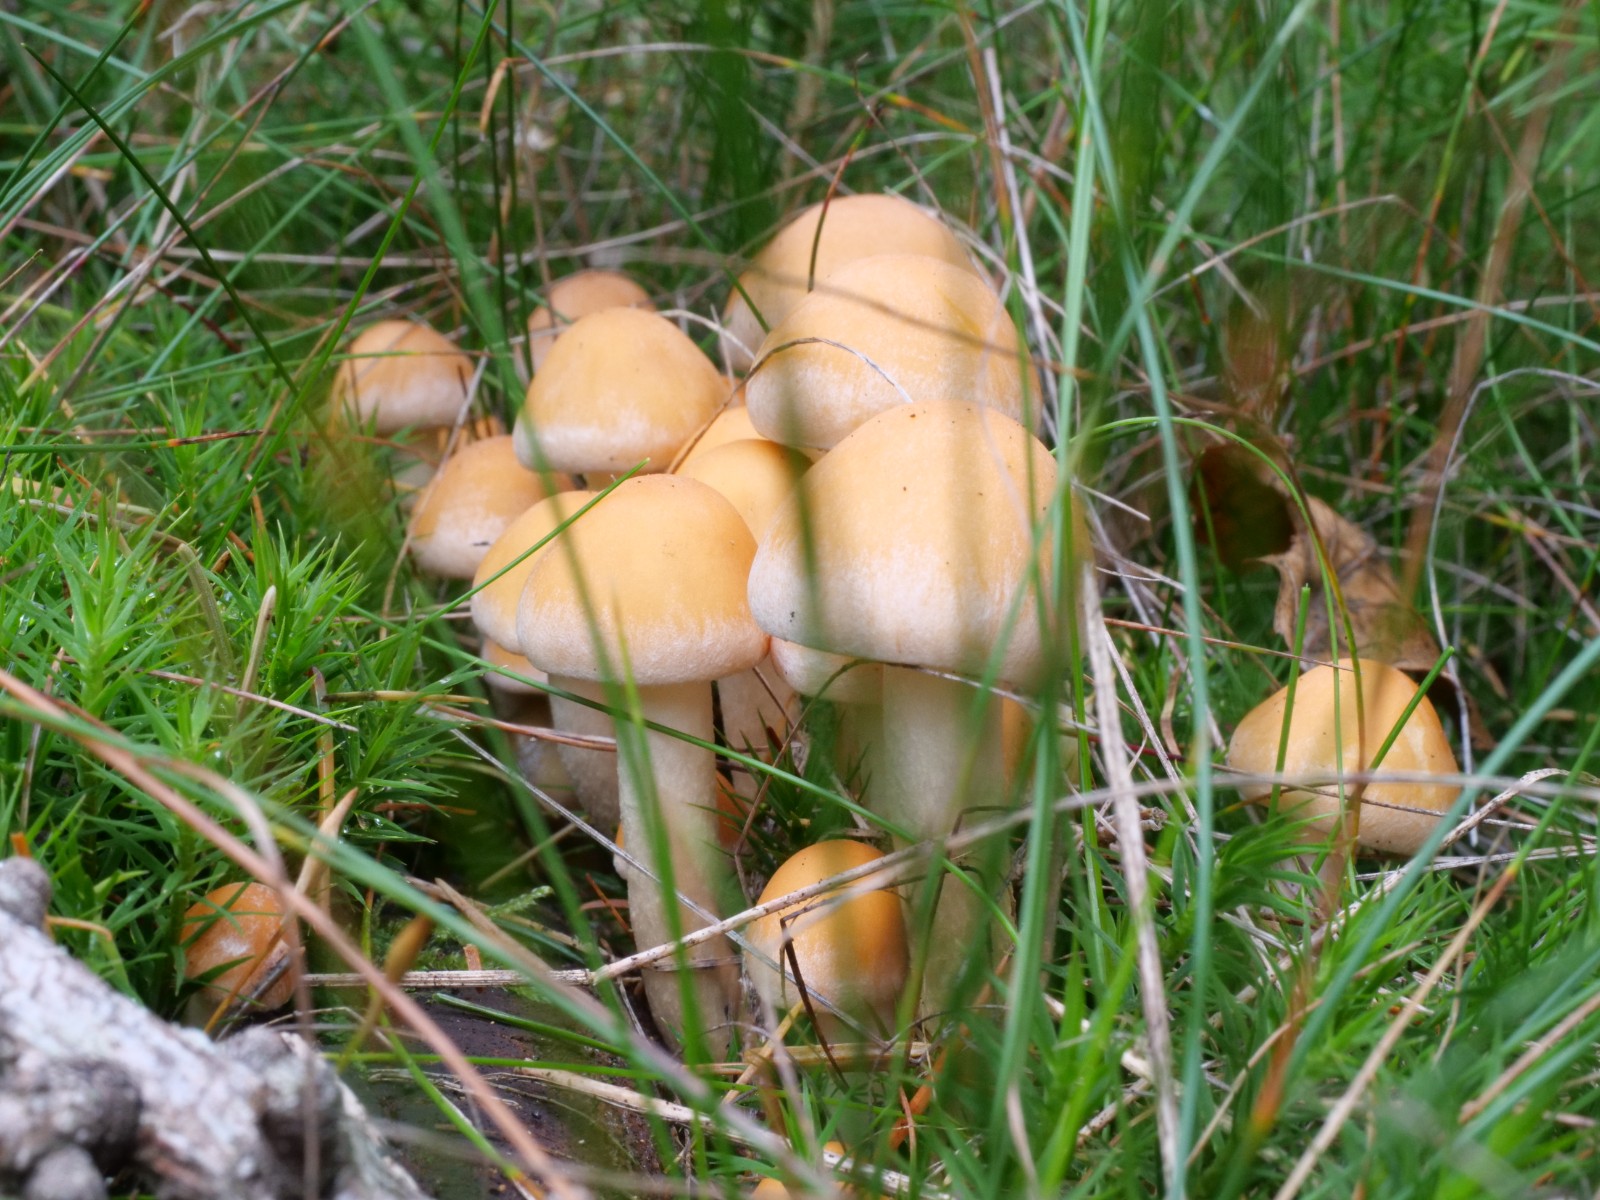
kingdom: Fungi
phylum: Basidiomycota
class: Agaricomycetes
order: Agaricales
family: Strophariaceae
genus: Hypholoma
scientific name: Hypholoma capnoides
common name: gran-svovlhat
